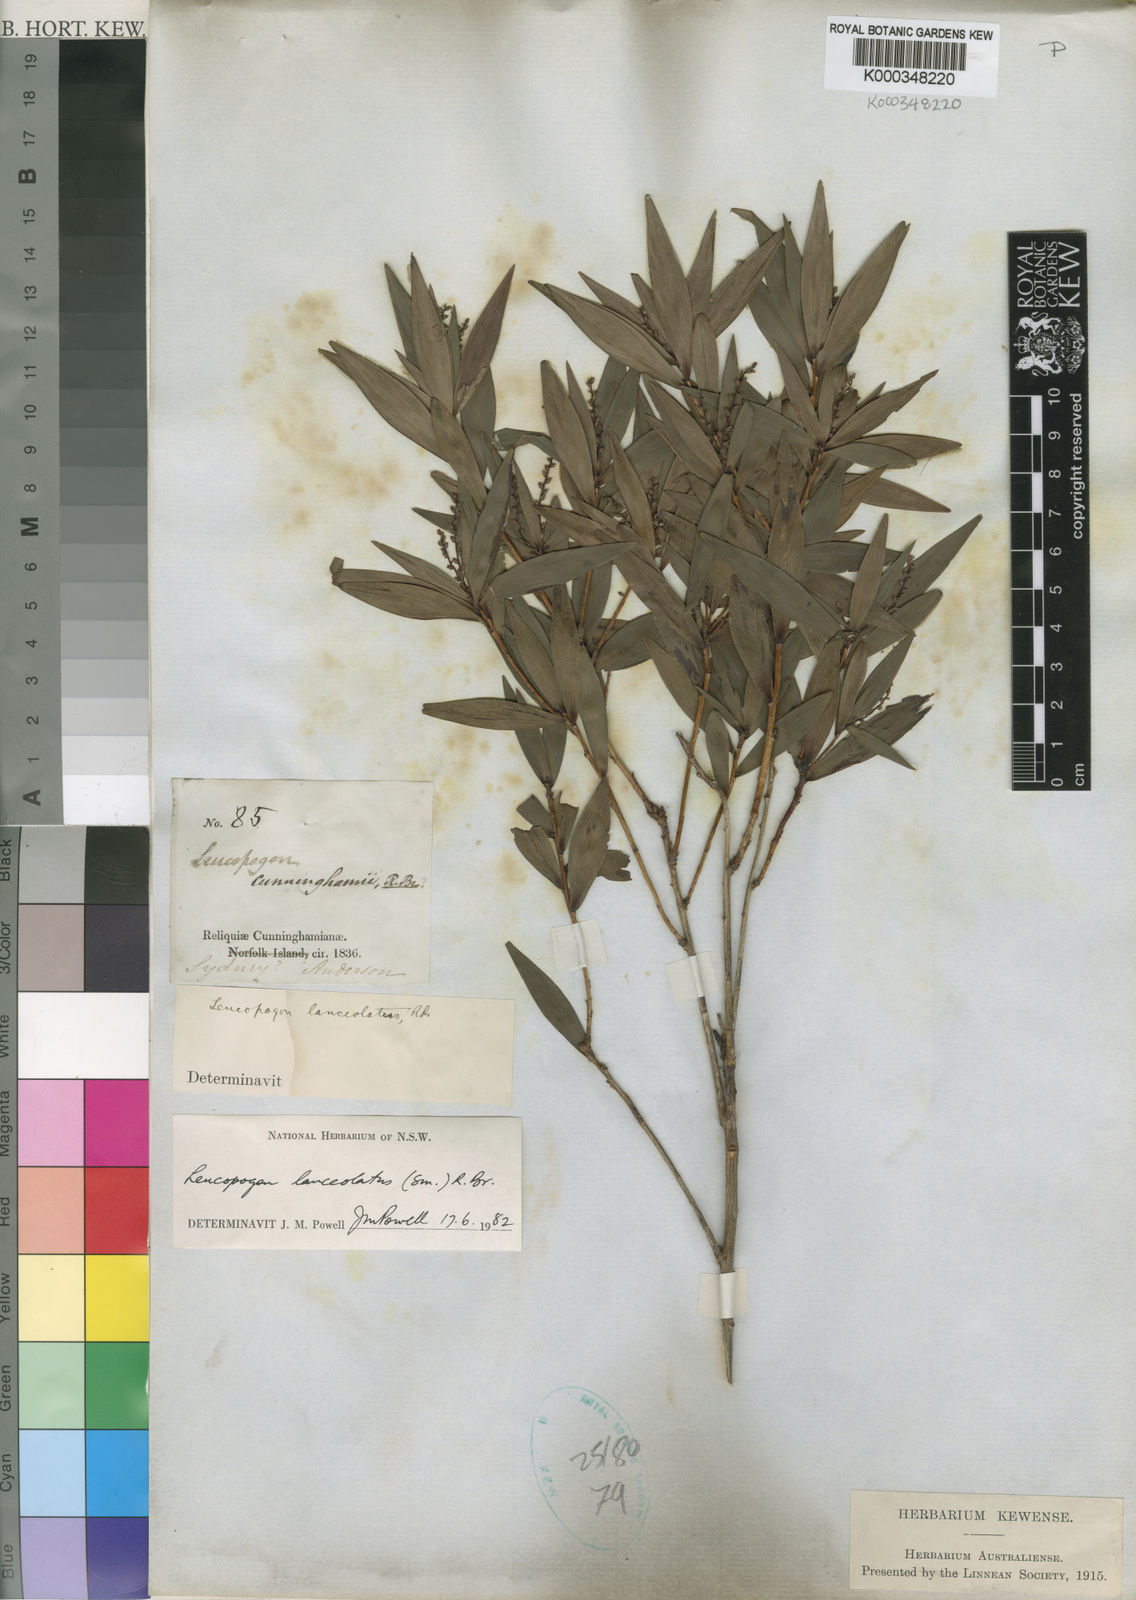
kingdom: Plantae
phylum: Tracheophyta
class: Magnoliopsida
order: Ericales
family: Ericaceae
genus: Leucopogon
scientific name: Leucopogon lanceolatus
